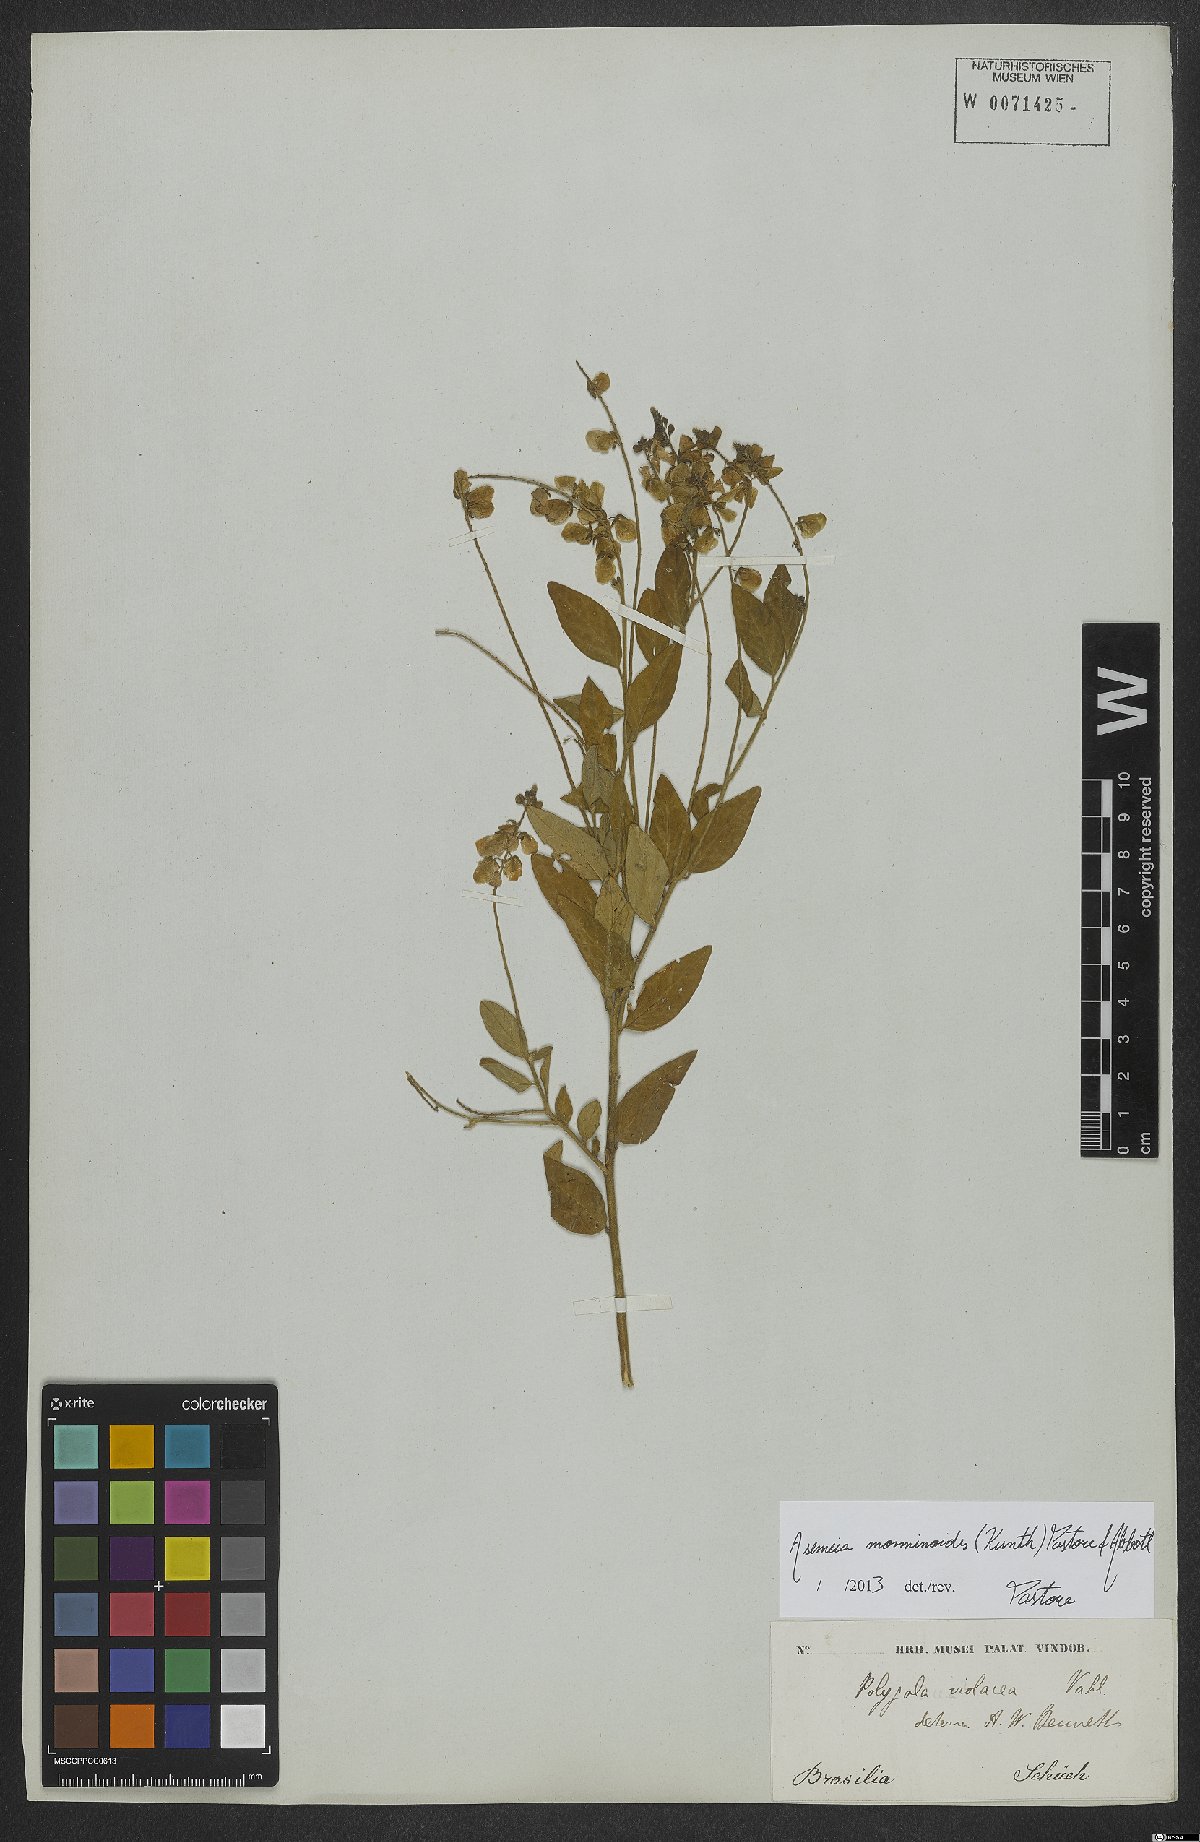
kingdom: Plantae
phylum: Tracheophyta
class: Magnoliopsida
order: Fabales
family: Polygalaceae
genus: Asemeia
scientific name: Asemeia monninoides
